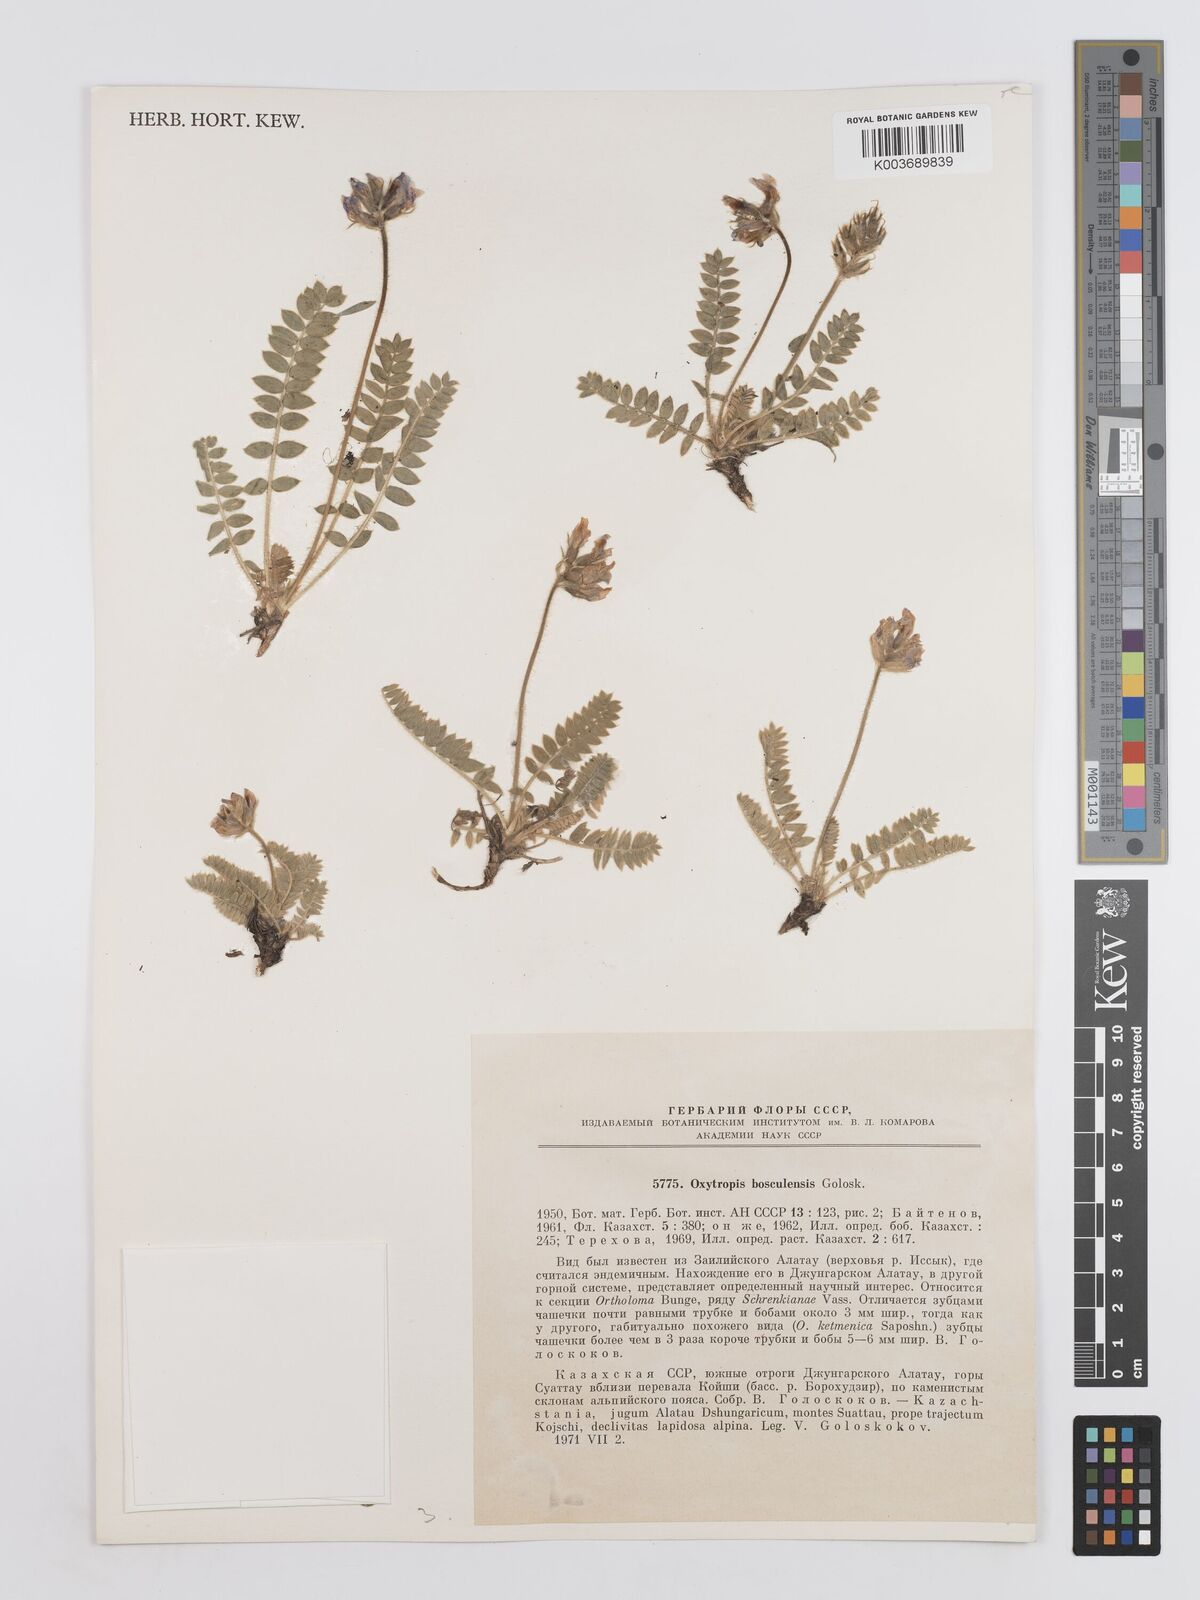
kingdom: Plantae
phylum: Tracheophyta
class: Magnoliopsida
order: Fabales
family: Fabaceae
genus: Oxytropis
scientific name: Oxytropis bosculensis
